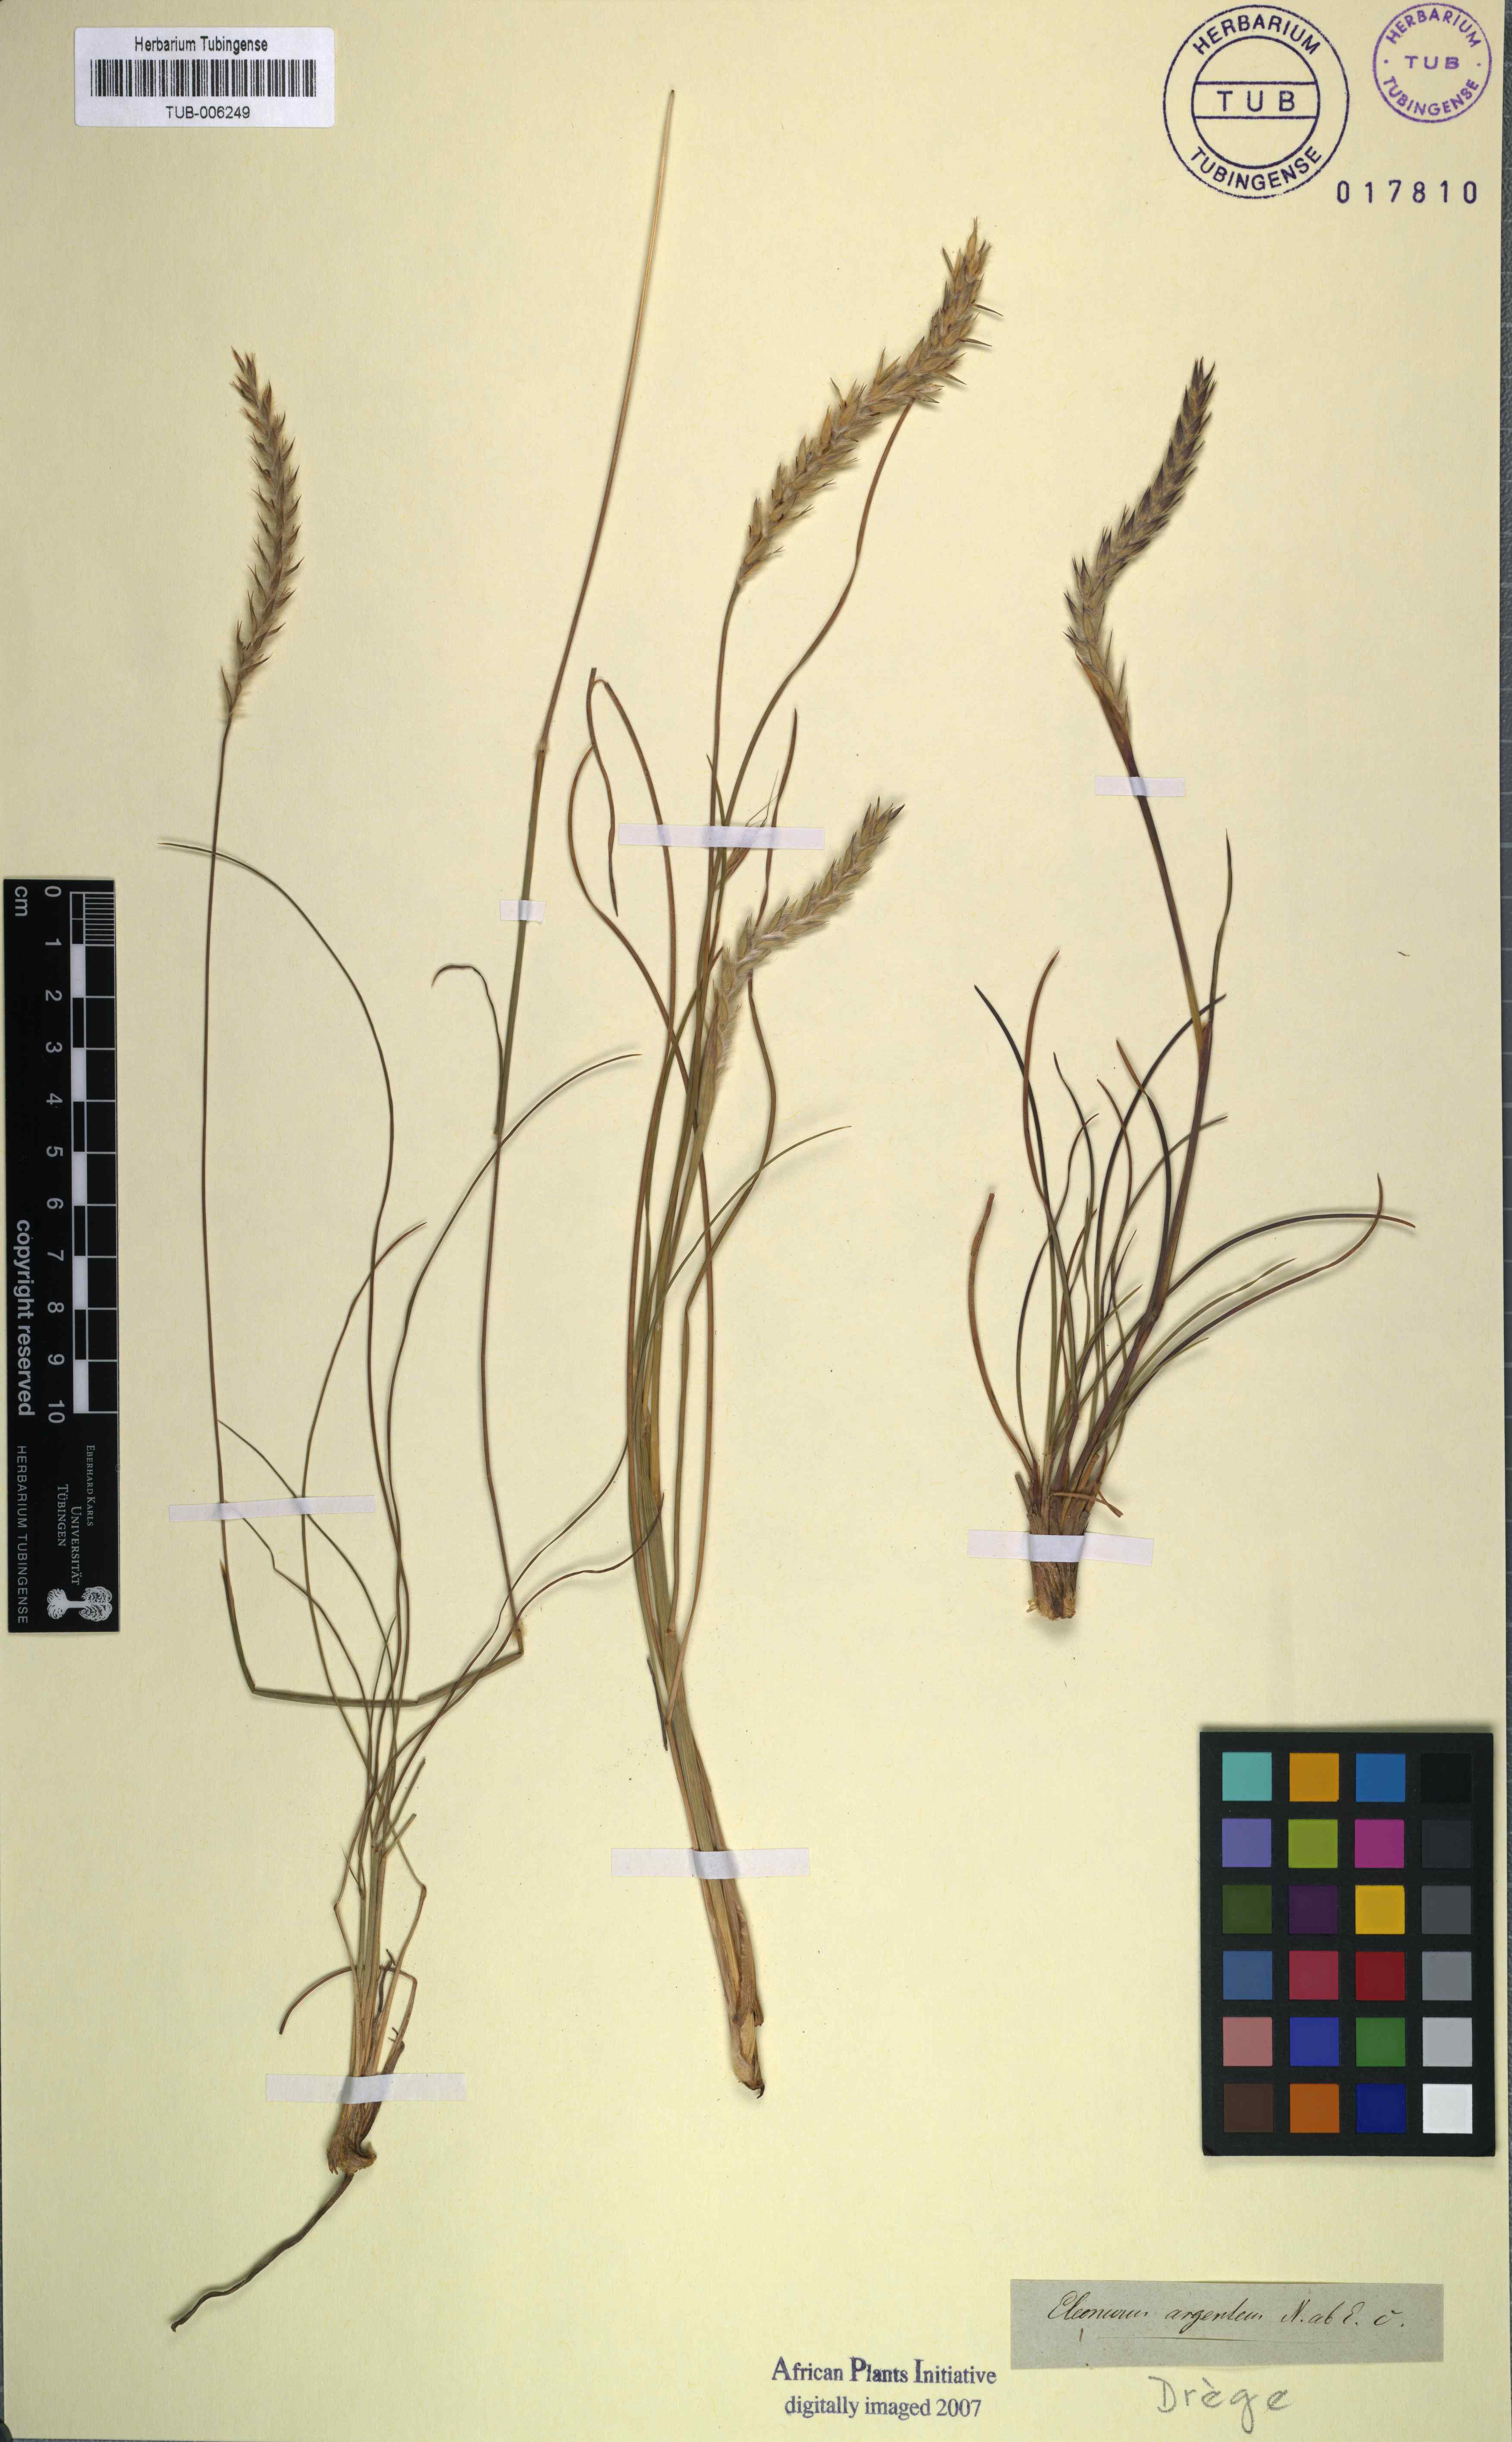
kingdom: Plantae
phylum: Tracheophyta
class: Liliopsida
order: Poales
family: Poaceae
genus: Elionurus
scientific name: Elionurus muticus
